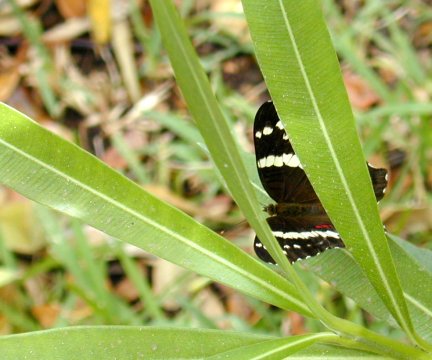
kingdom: Animalia
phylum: Arthropoda
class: Insecta
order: Lepidoptera
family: Nymphalidae
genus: Anartia
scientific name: Anartia fatima
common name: Banded Peacock
